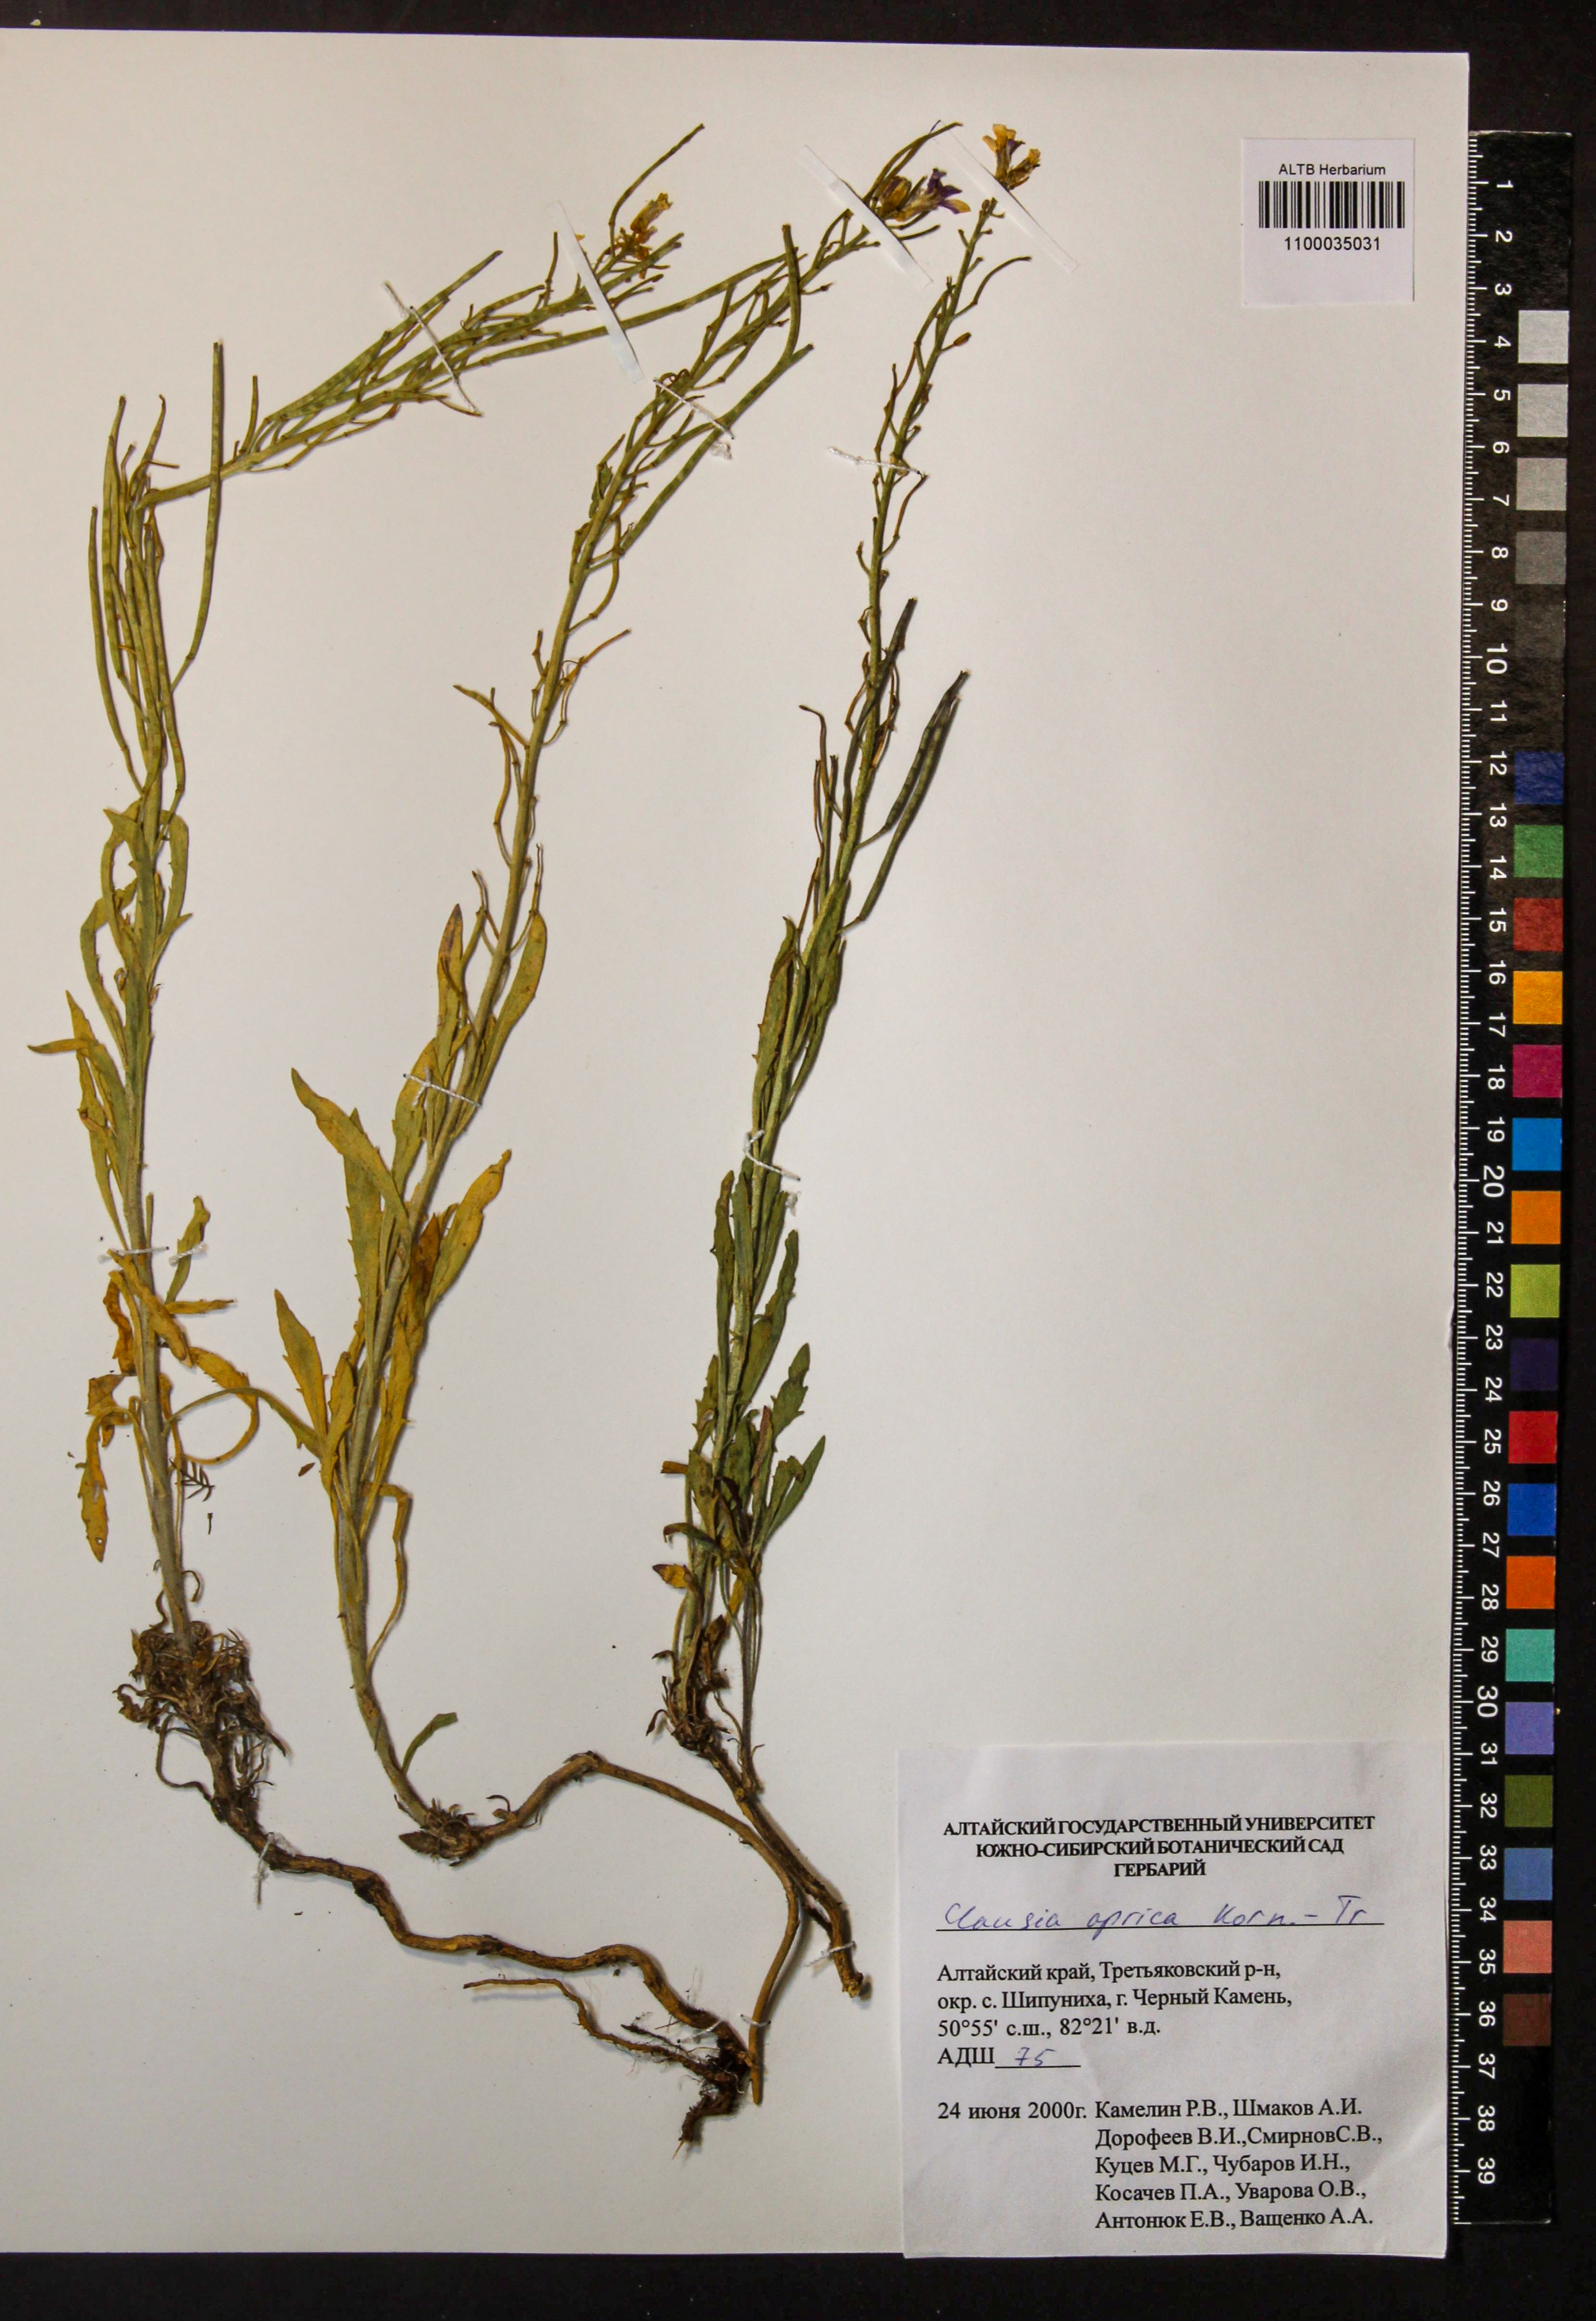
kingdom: Plantae
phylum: Tracheophyta
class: Magnoliopsida
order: Brassicales
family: Brassicaceae
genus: Clausia
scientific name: Clausia aprica
